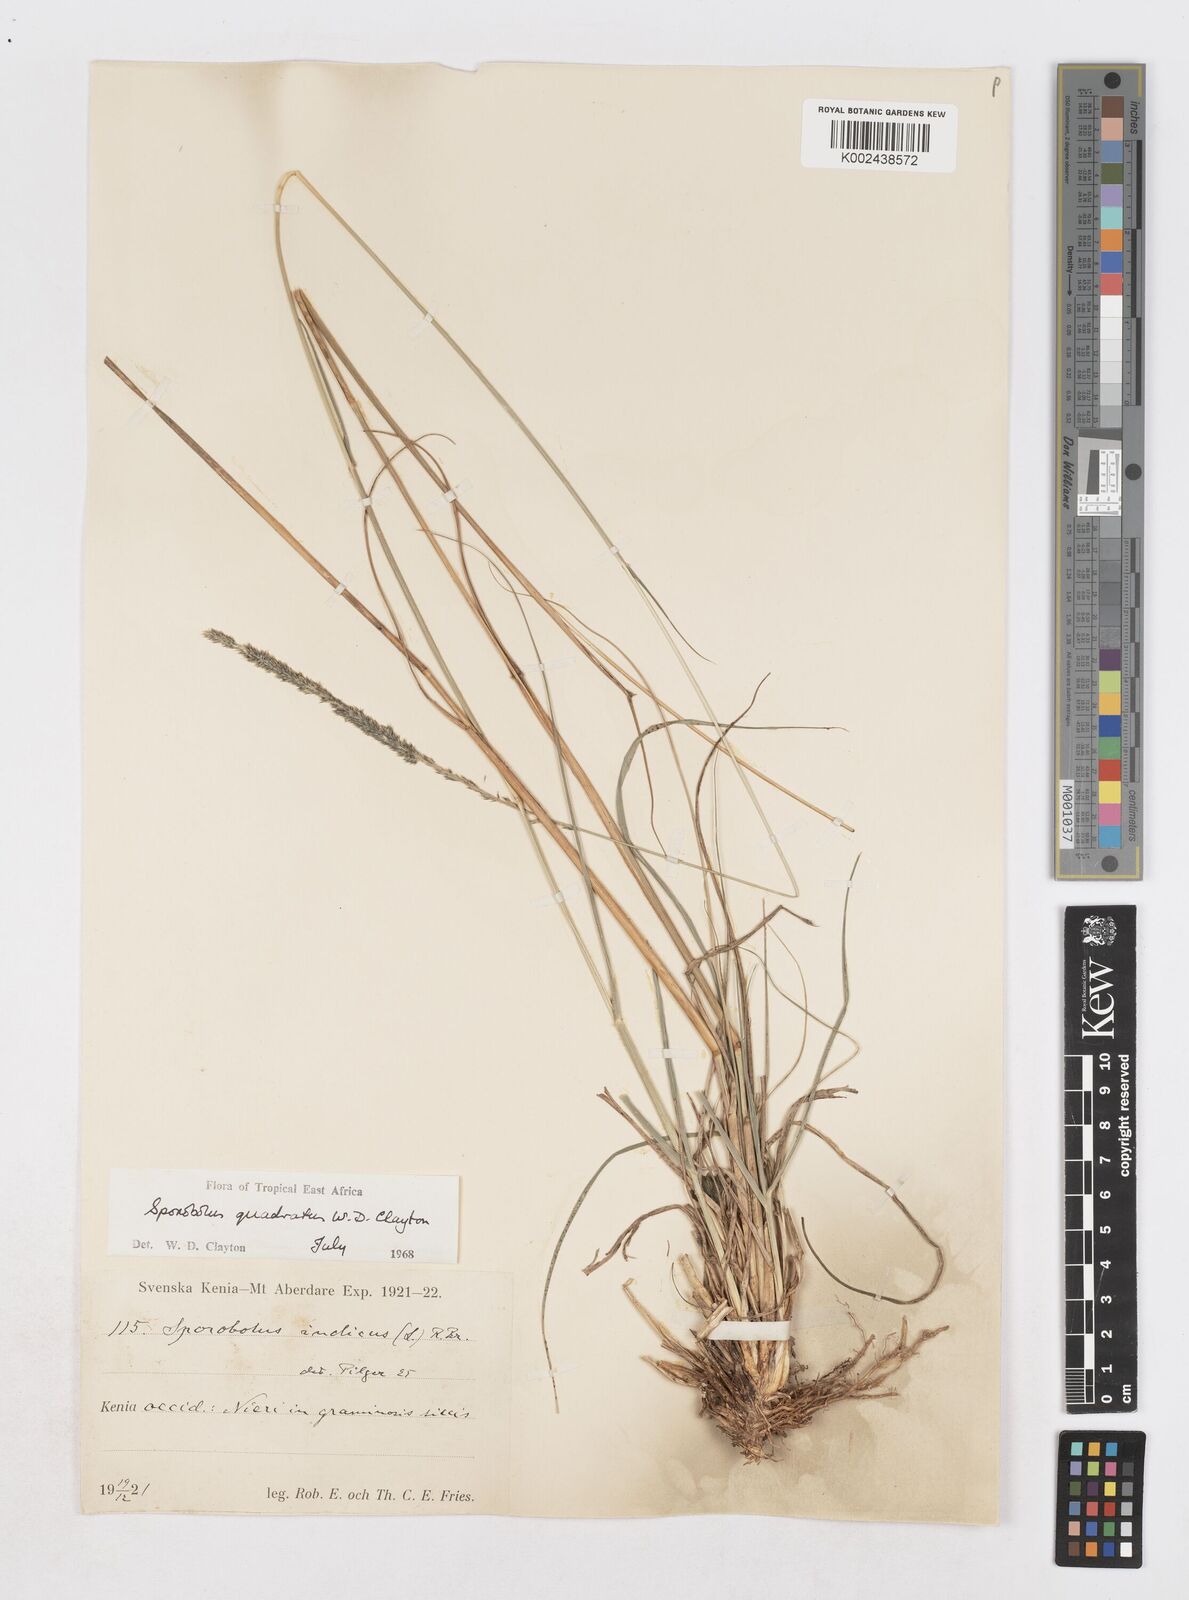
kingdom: Plantae
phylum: Tracheophyta
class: Liliopsida
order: Poales
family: Poaceae
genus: Sporobolus
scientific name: Sporobolus quadratus
